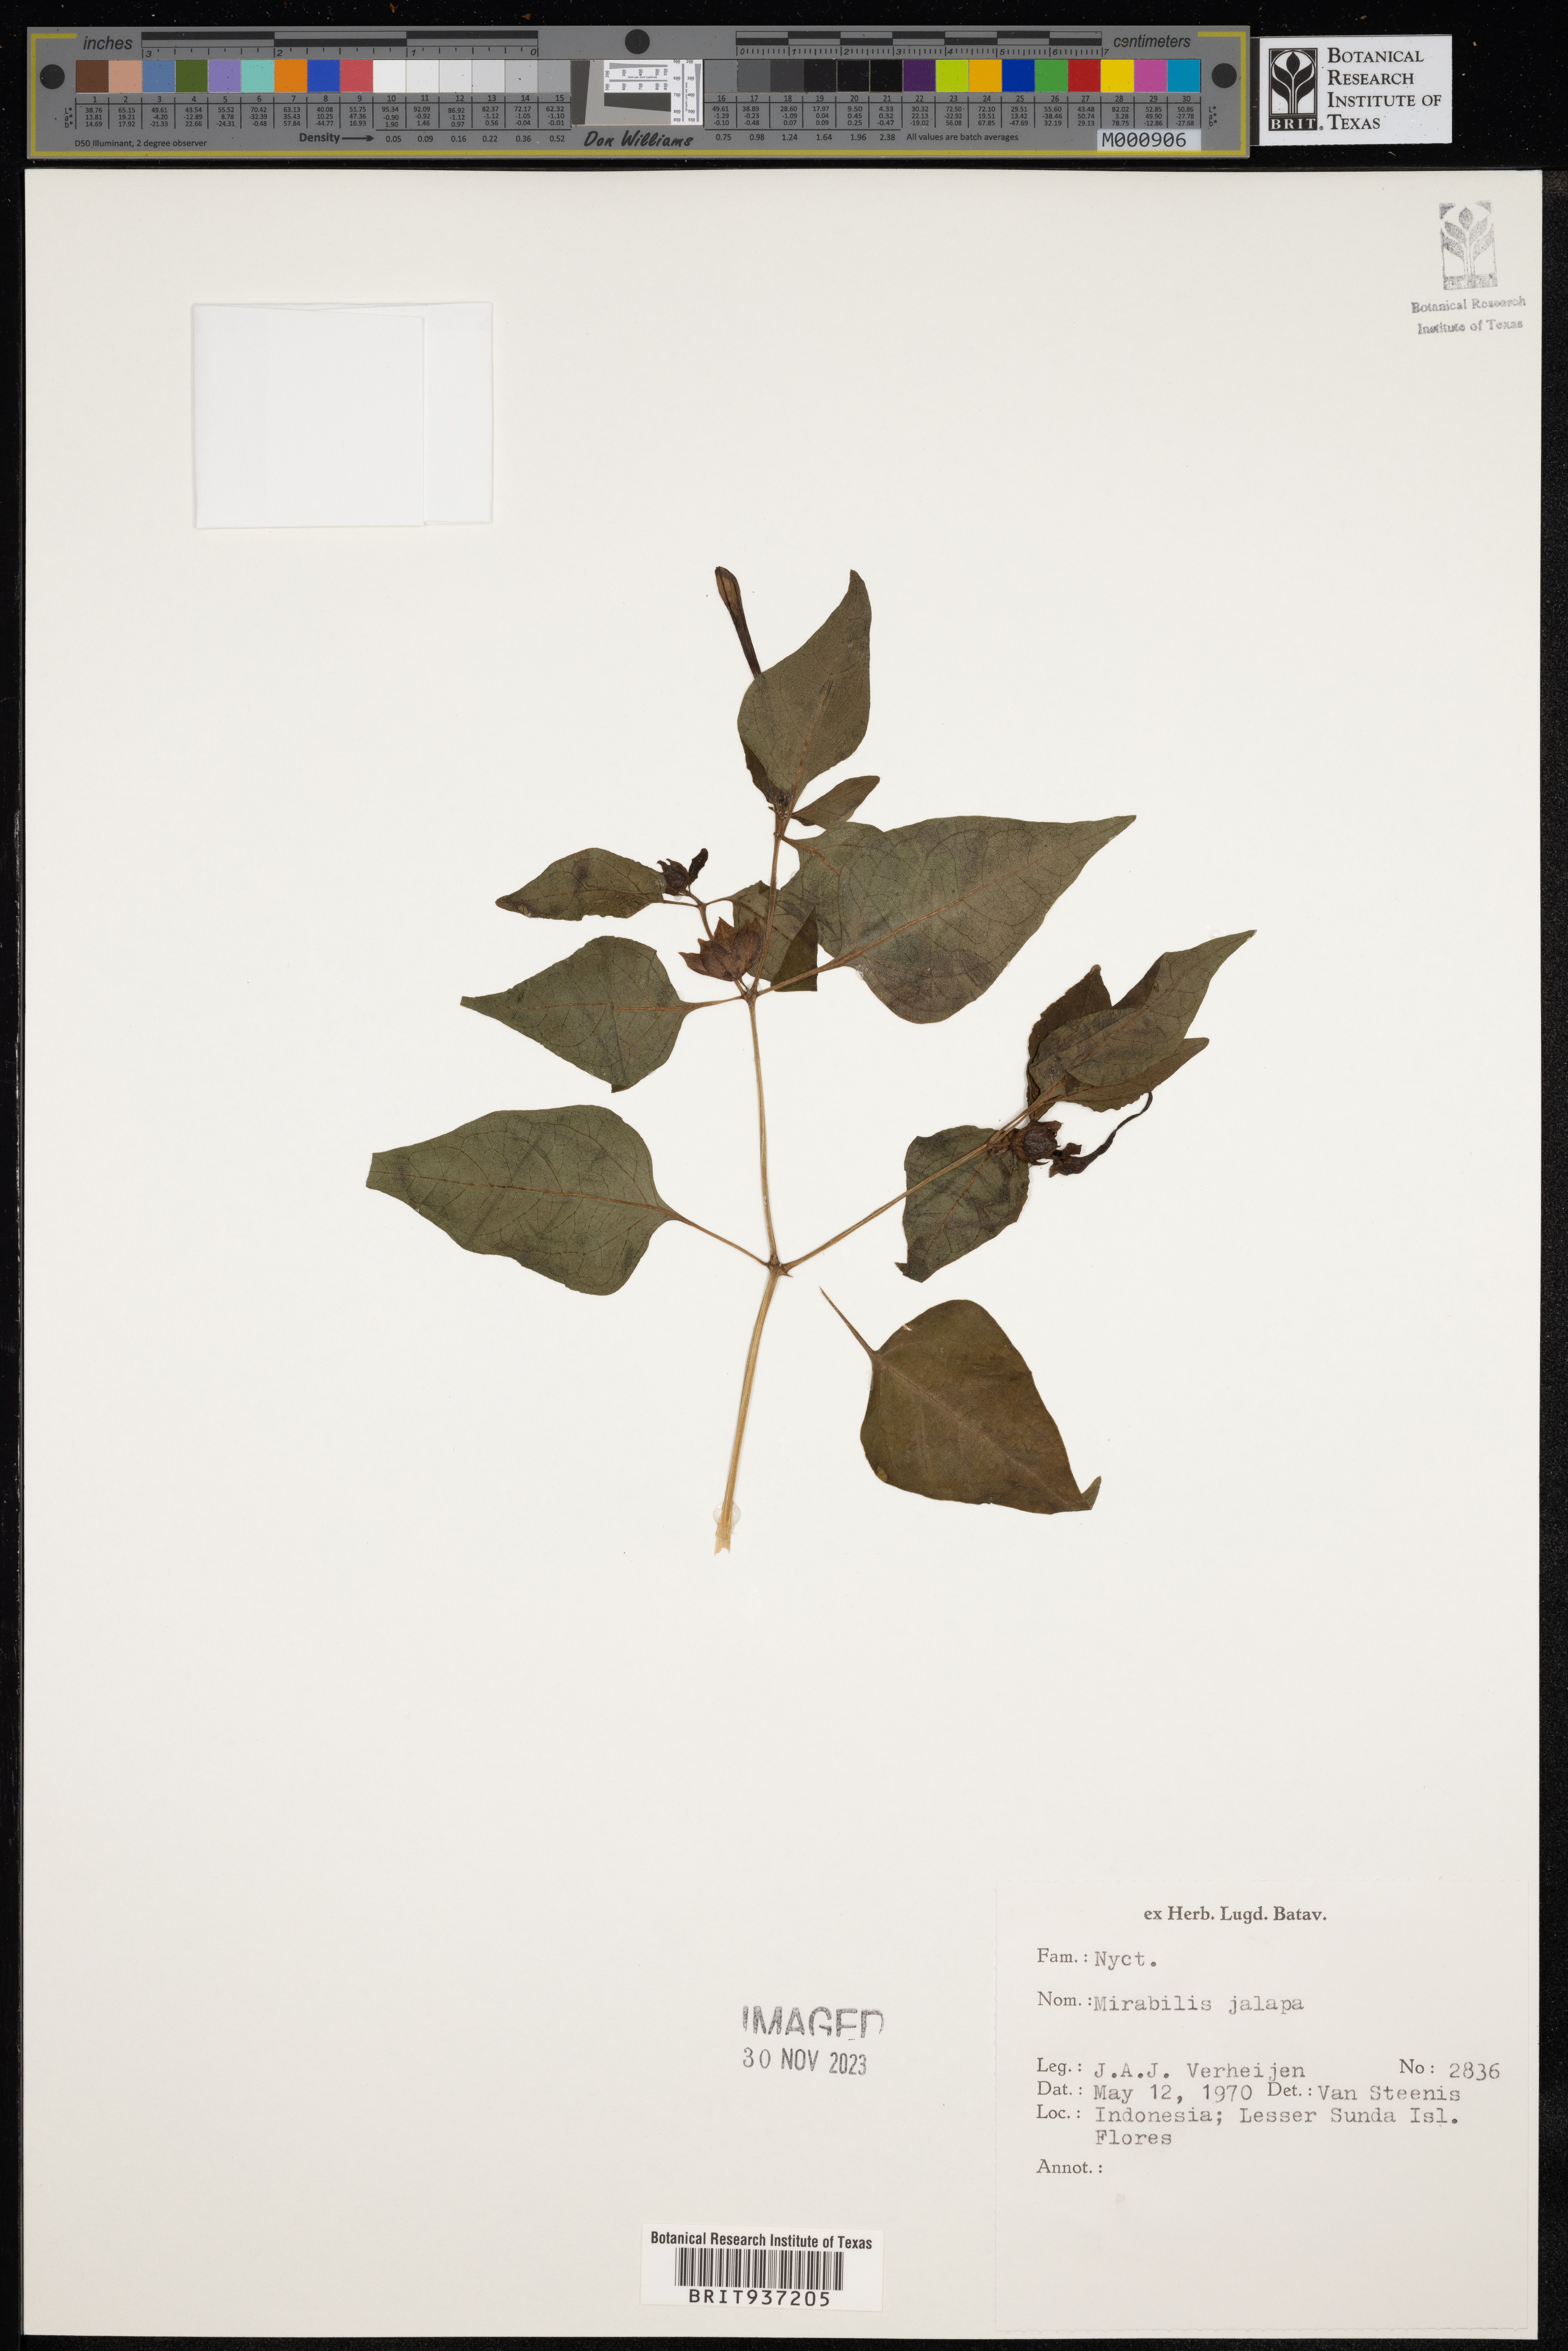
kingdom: Plantae
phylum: Tracheophyta
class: Magnoliopsida
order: Caryophyllales
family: Nyctaginaceae
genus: Mirabilis
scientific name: Mirabilis
